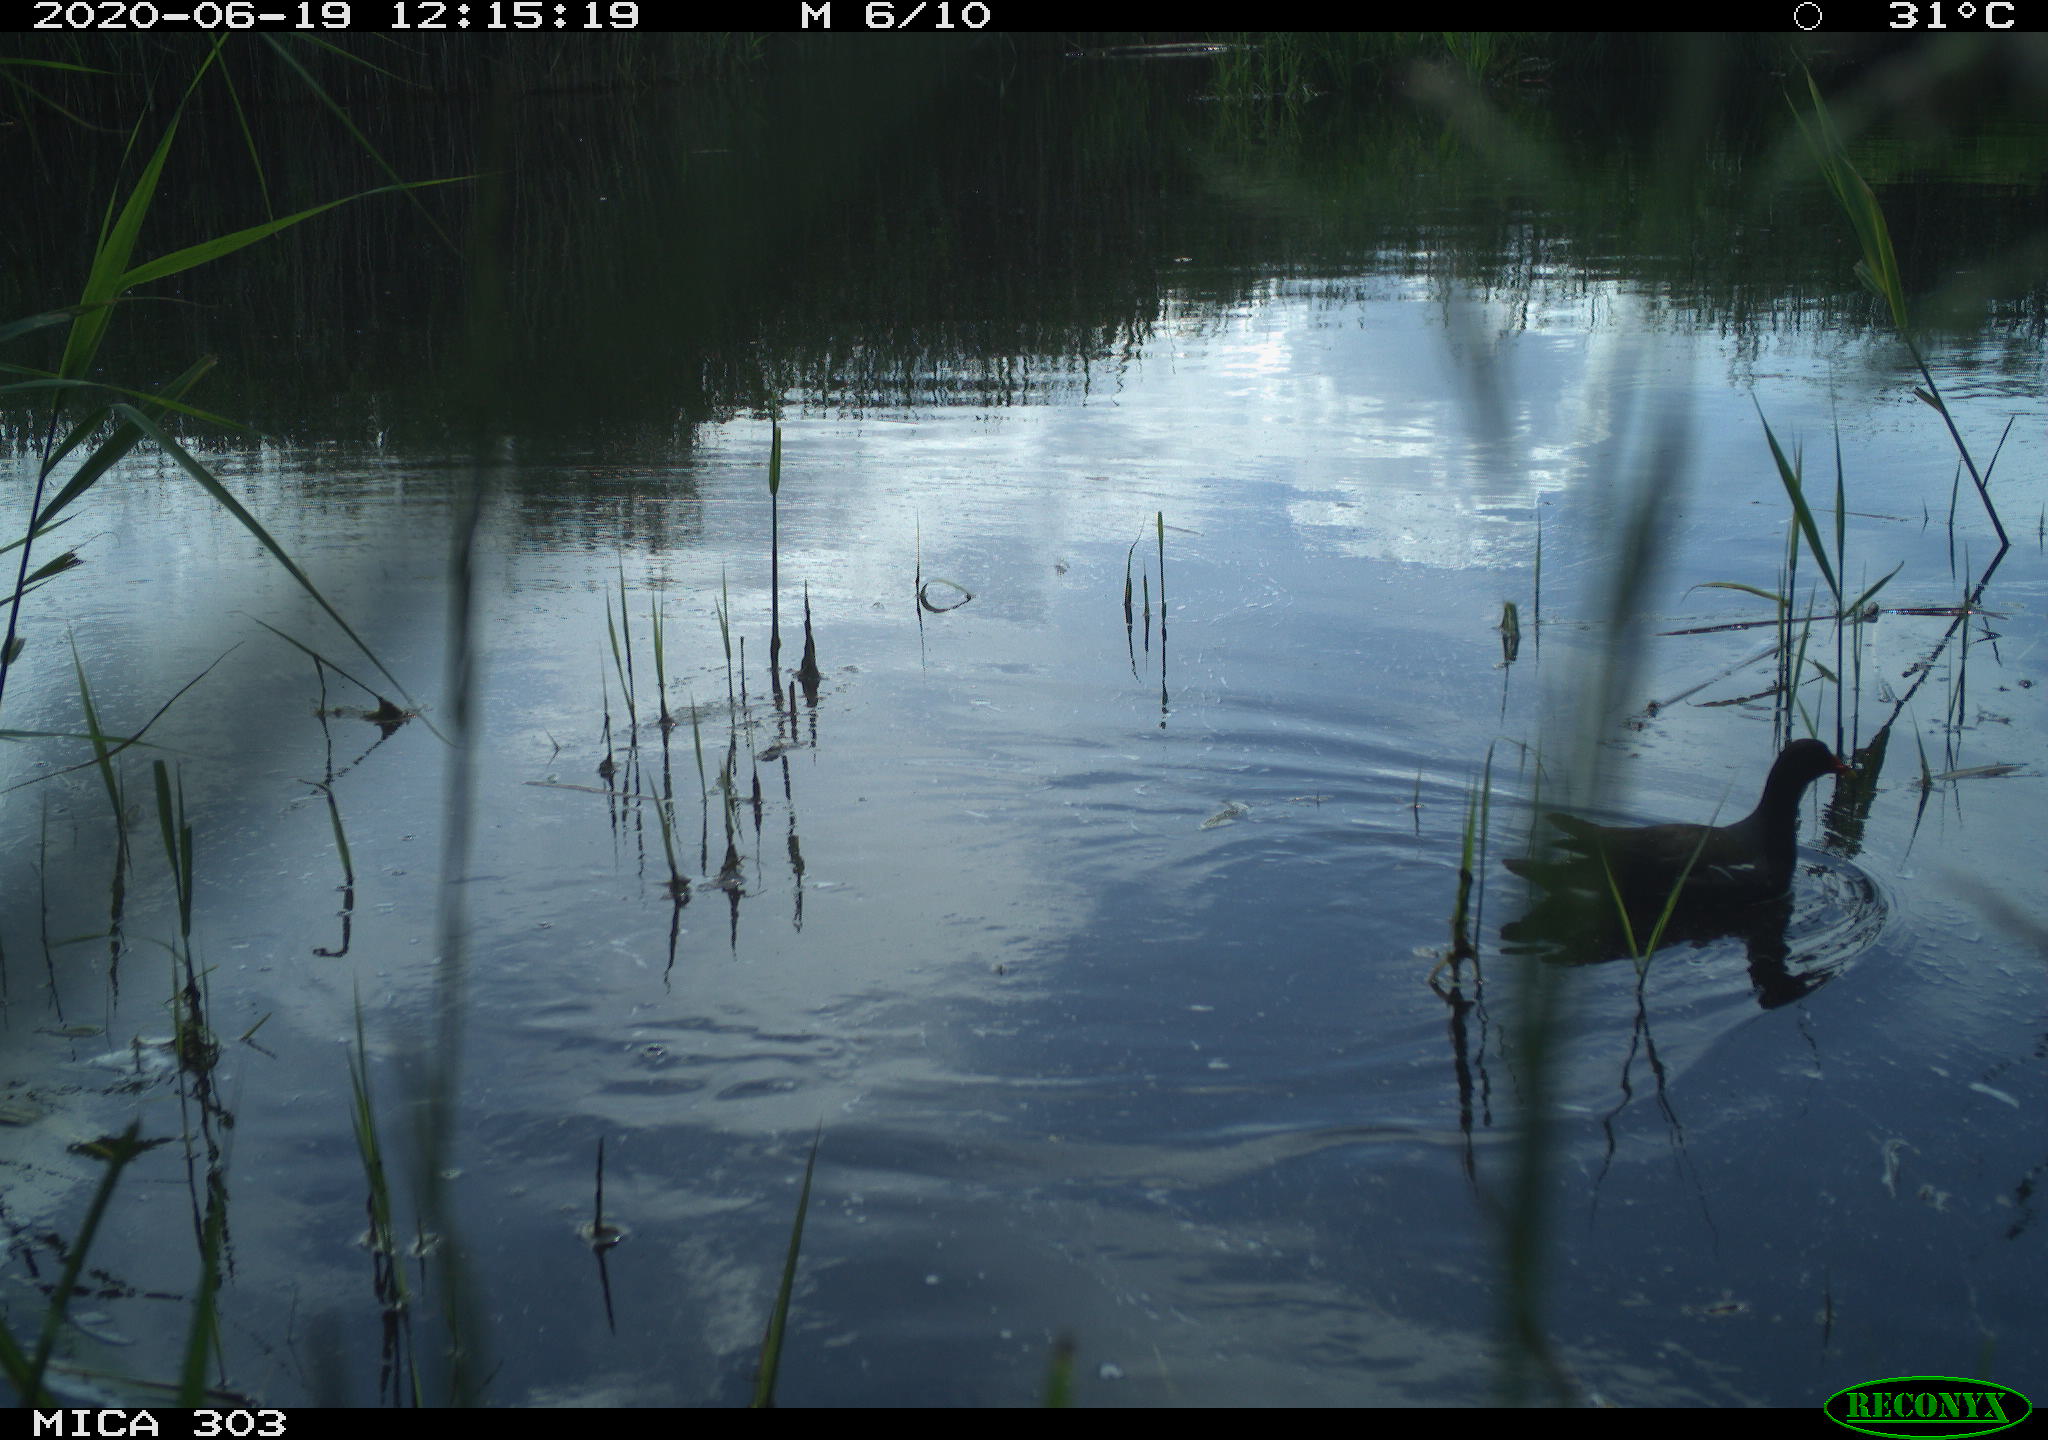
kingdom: Animalia
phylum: Chordata
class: Aves
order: Gruiformes
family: Rallidae
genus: Gallinula
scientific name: Gallinula chloropus
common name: Common moorhen
